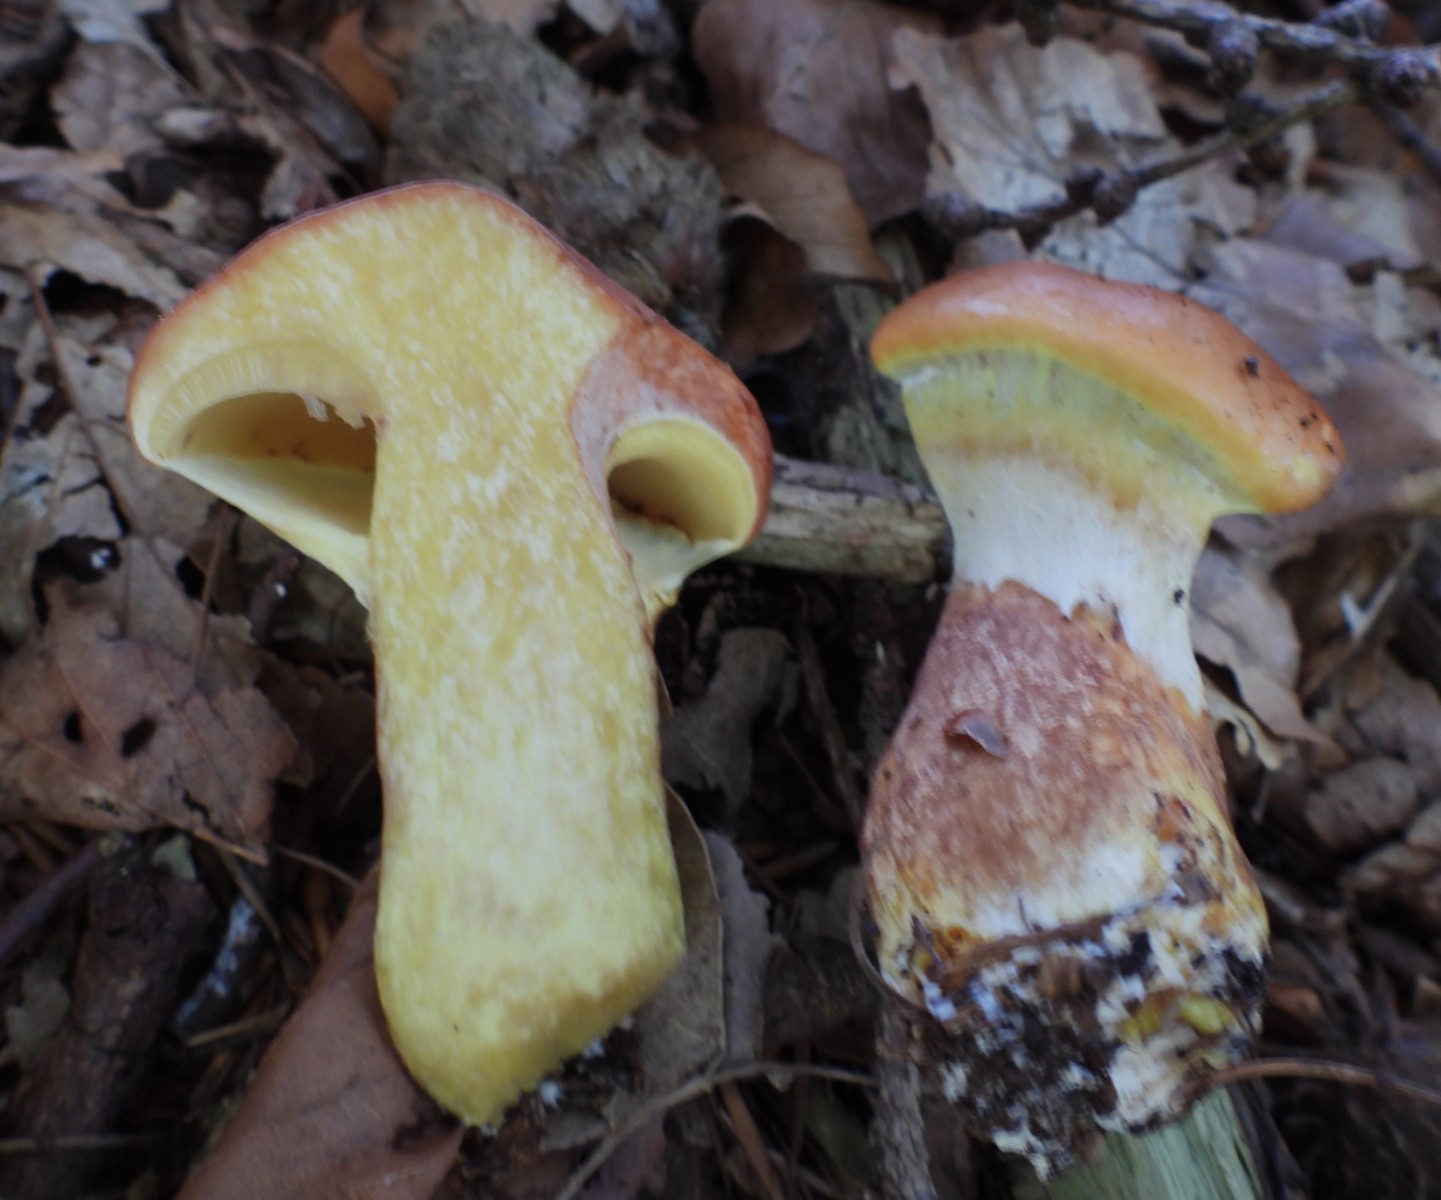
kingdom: Fungi
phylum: Basidiomycota
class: Agaricomycetes
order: Boletales
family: Suillaceae
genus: Suillus
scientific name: Suillus grevillei
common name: lærke-slimrørhat
